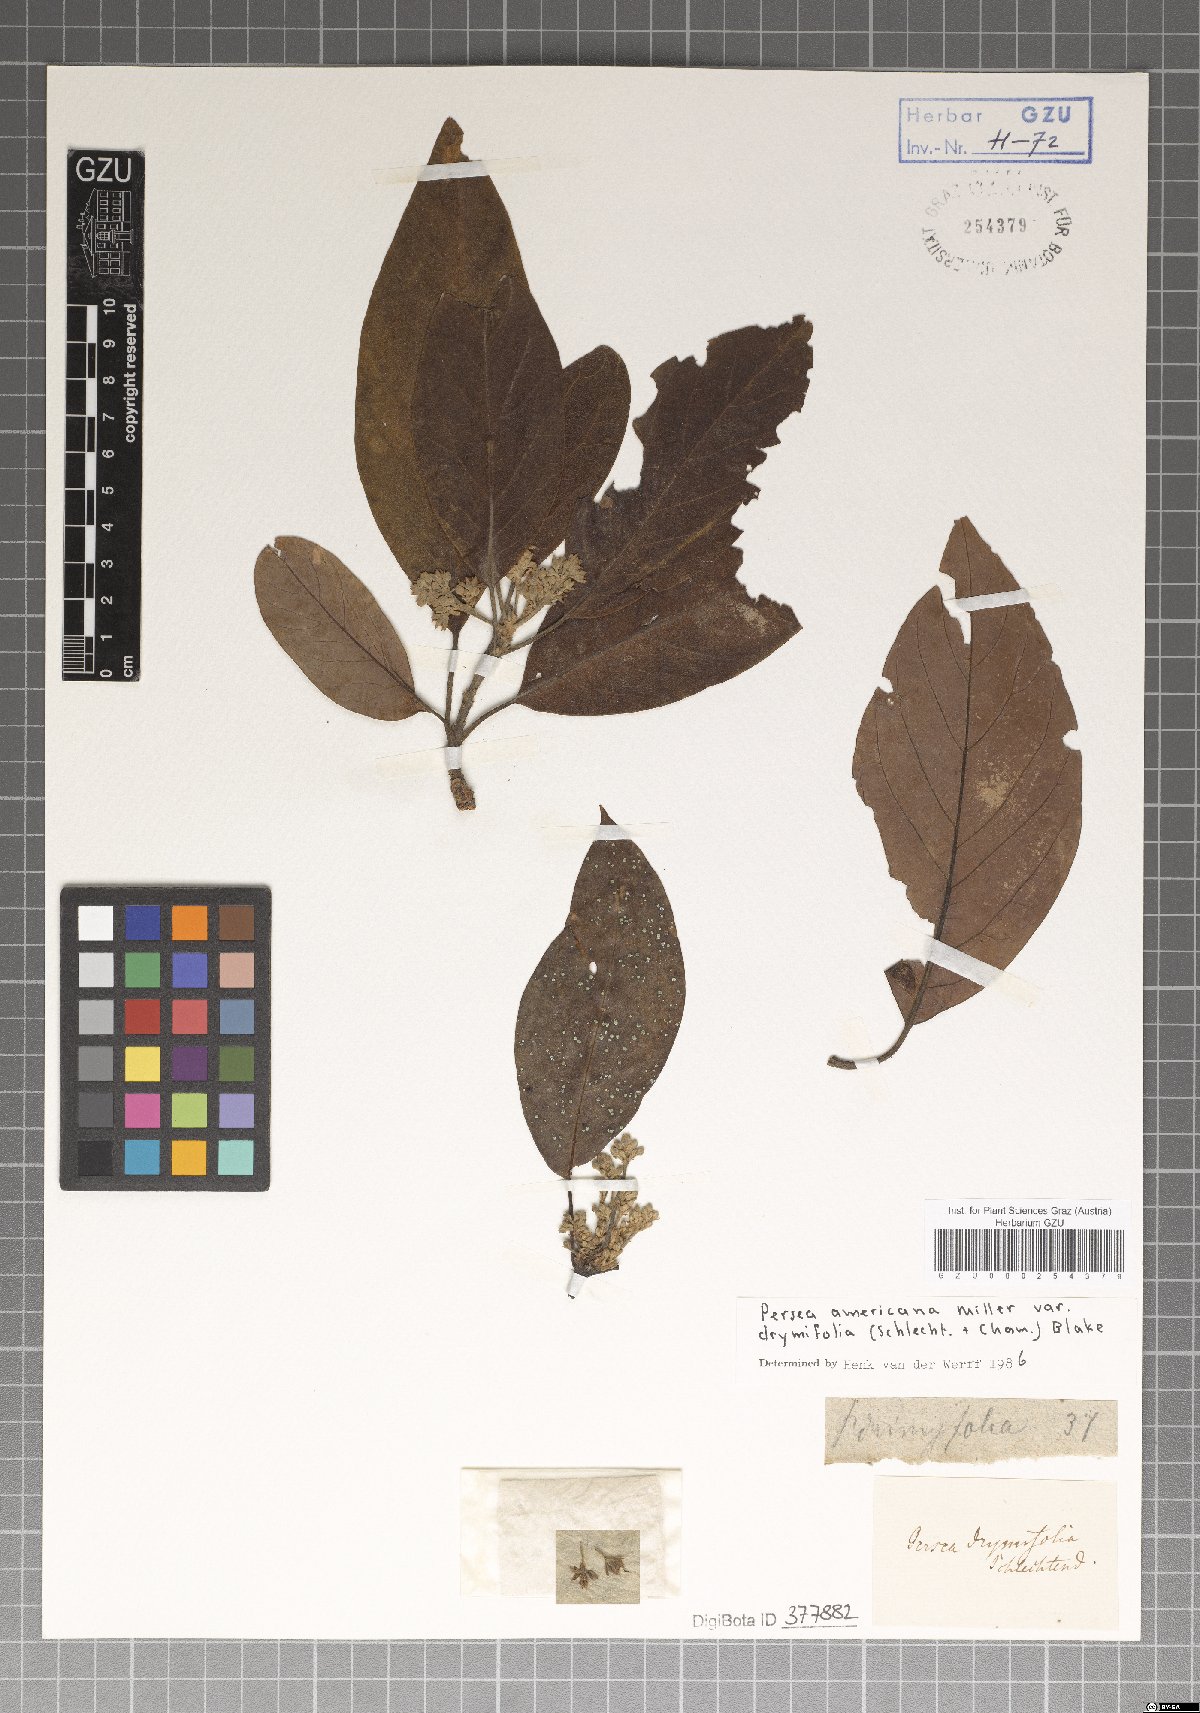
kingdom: Plantae
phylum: Tracheophyta
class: Magnoliopsida
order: Laurales
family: Lauraceae
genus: Persea
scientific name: Persea americana
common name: Avocado
